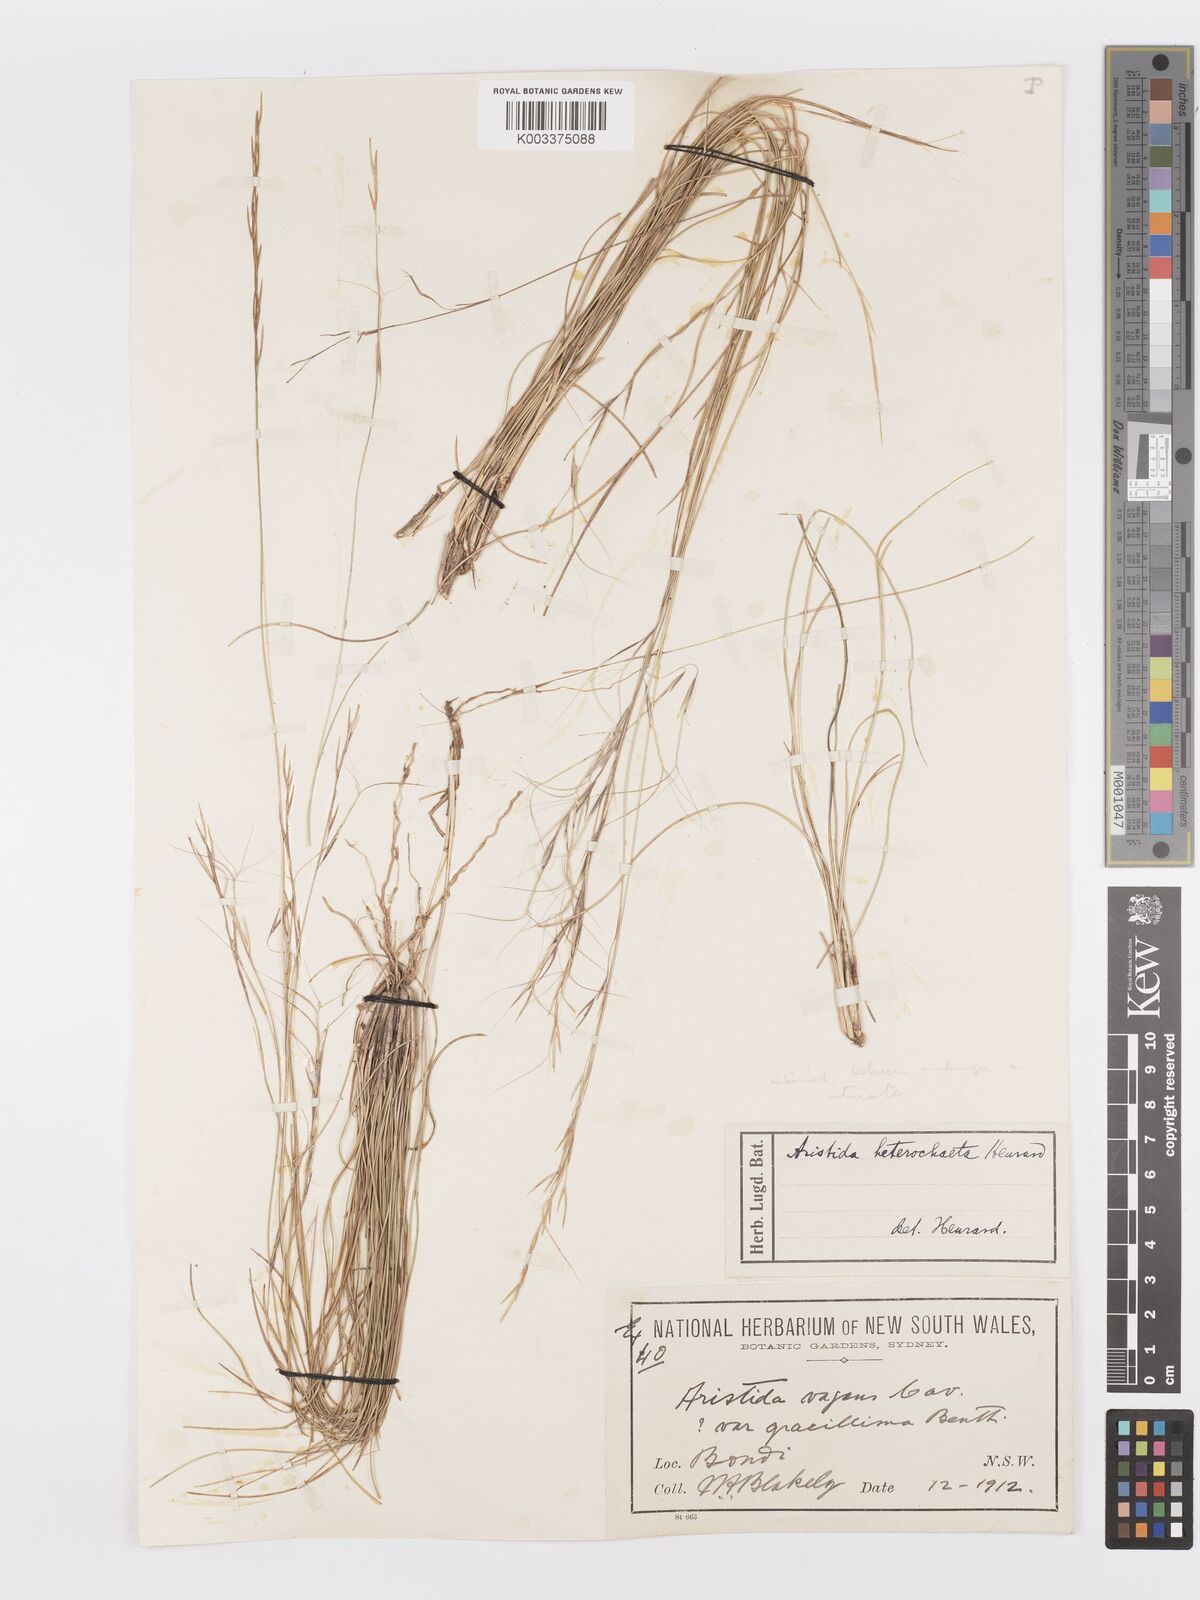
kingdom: Plantae
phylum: Tracheophyta
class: Liliopsida
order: Poales
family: Poaceae
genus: Aristida
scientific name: Aristida warburgii
